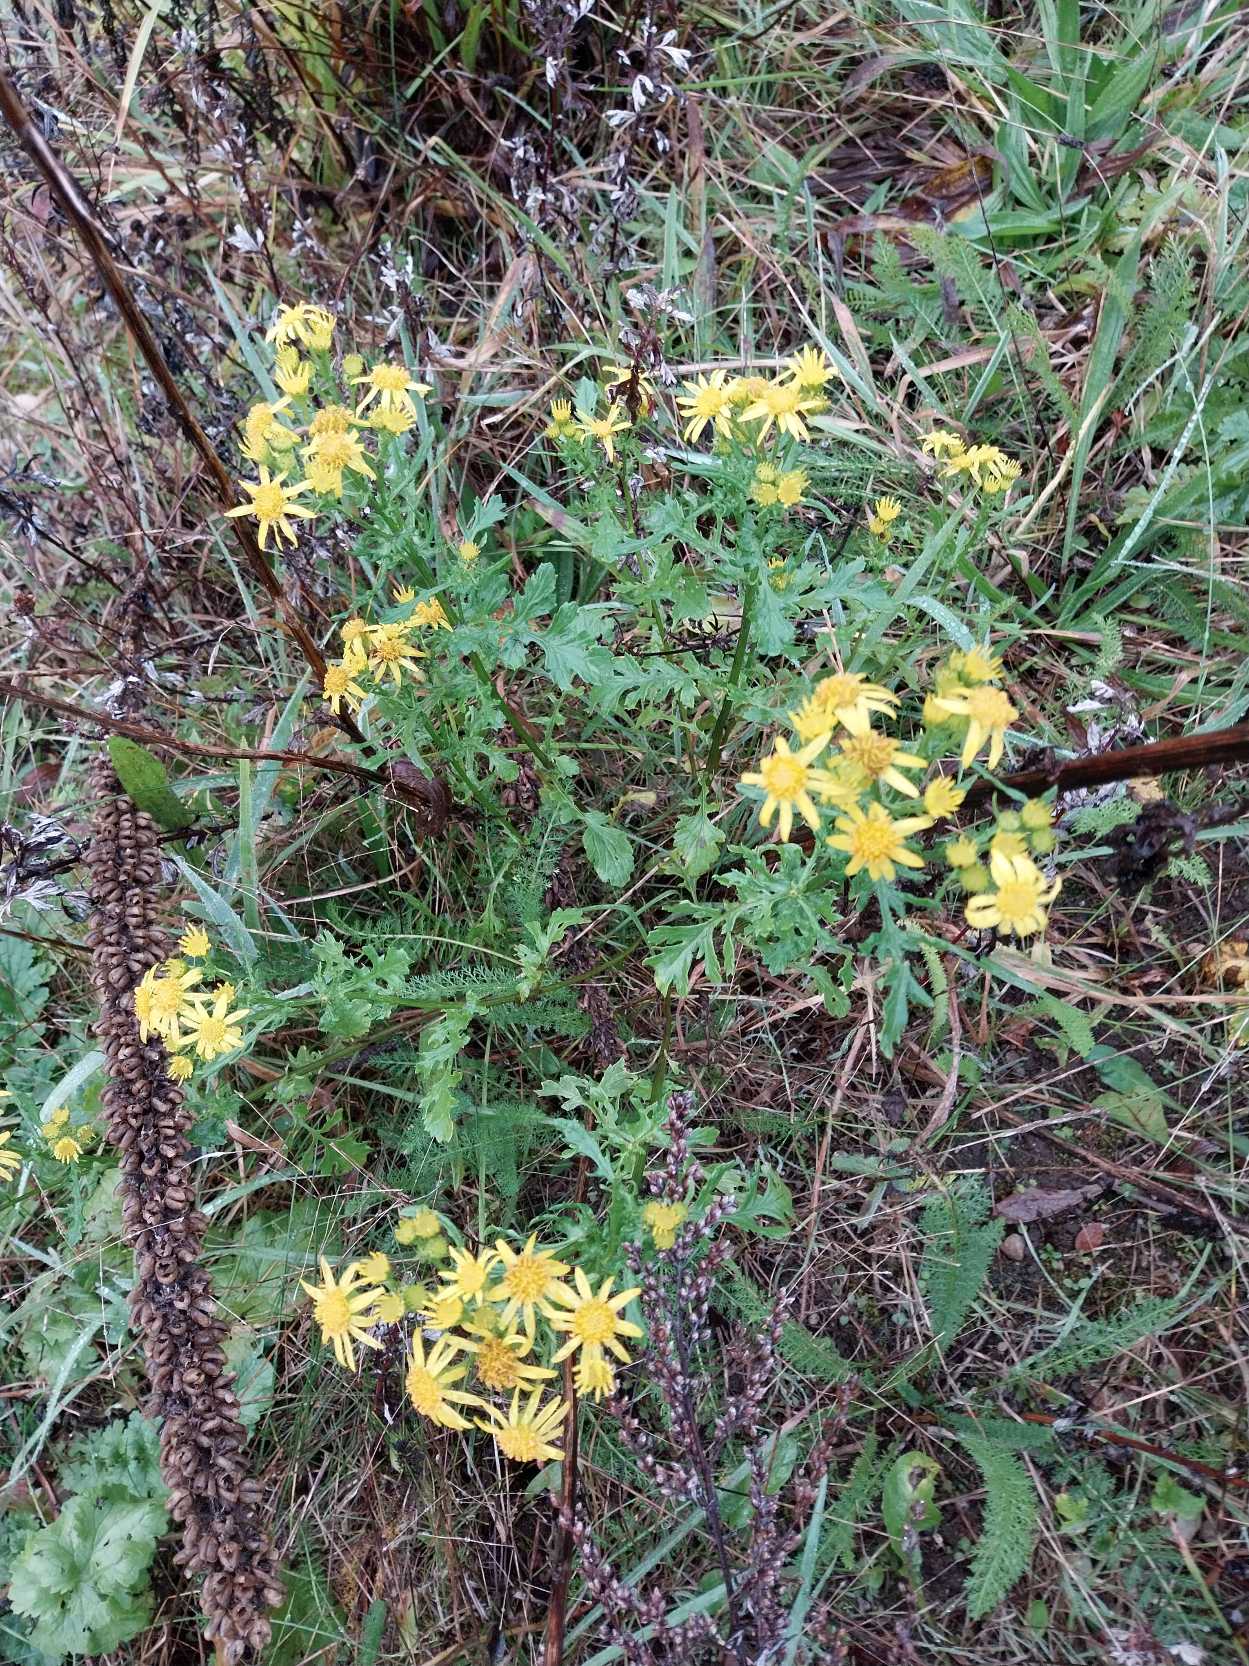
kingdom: Plantae
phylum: Tracheophyta
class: Magnoliopsida
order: Asterales
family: Asteraceae
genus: Jacobaea
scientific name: Jacobaea vulgaris
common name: Eng-brandbæger
